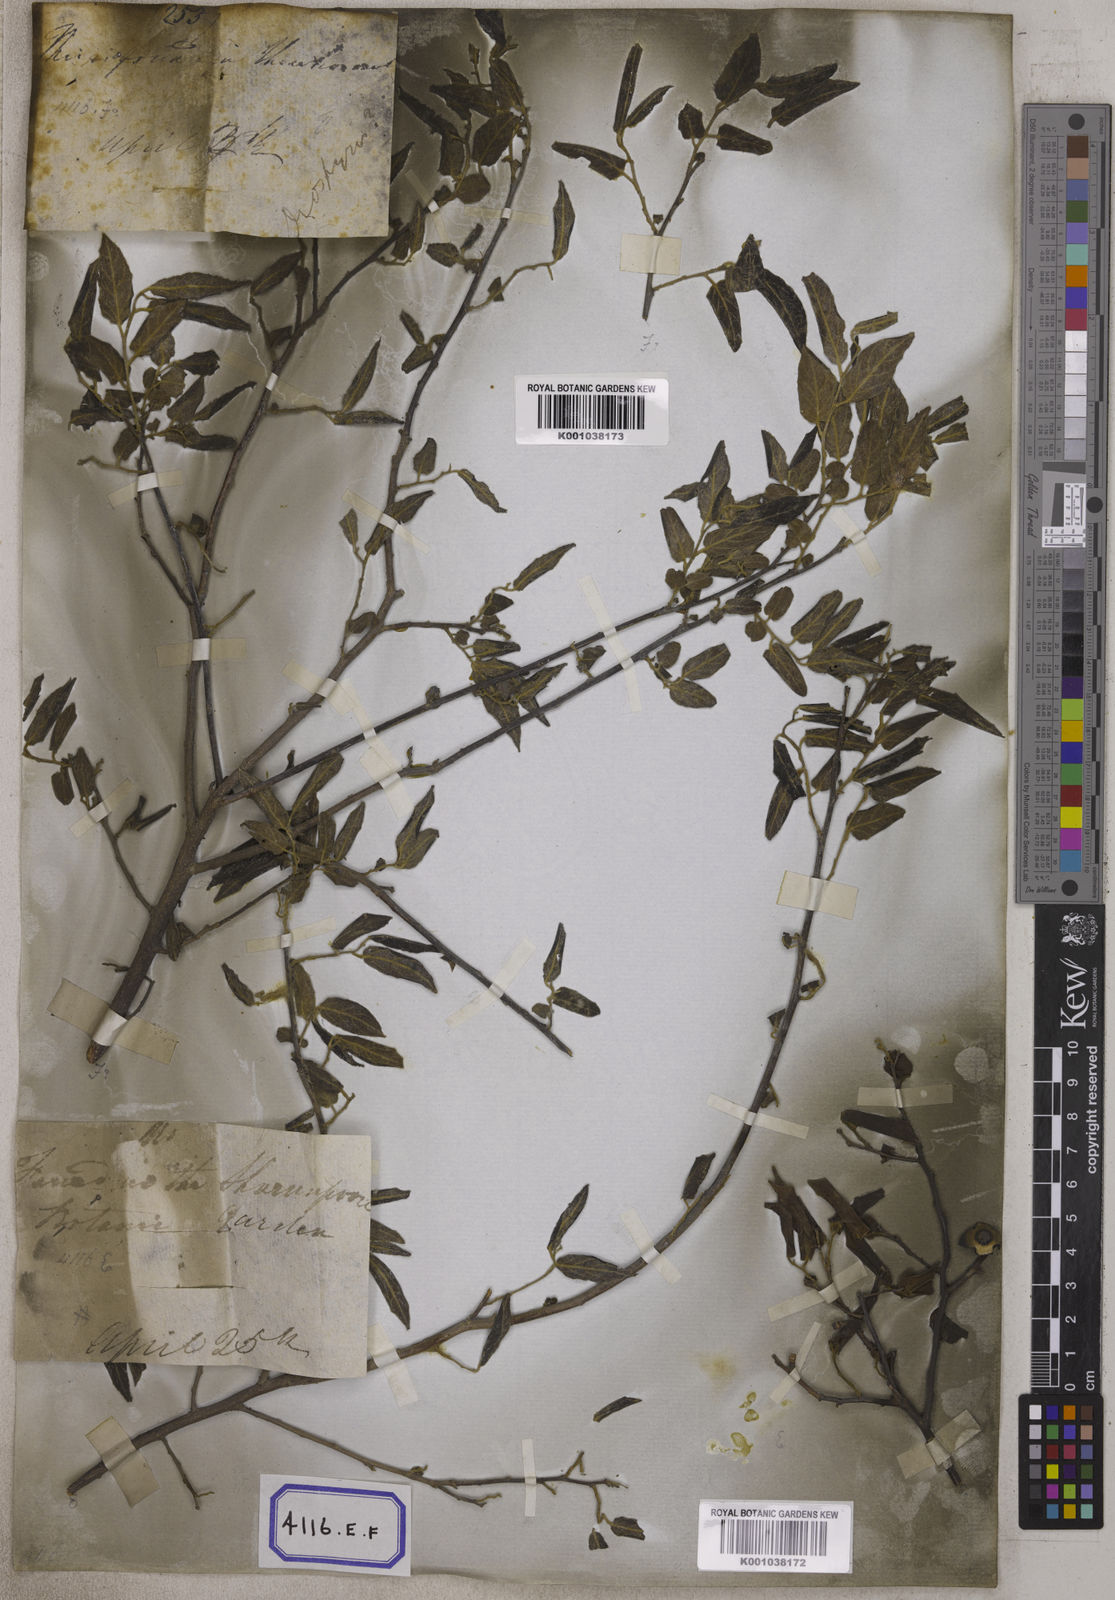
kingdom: Plantae
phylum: Tracheophyta
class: Magnoliopsida
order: Ericales
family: Ebenaceae
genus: Diospyros
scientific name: Diospyros montana
